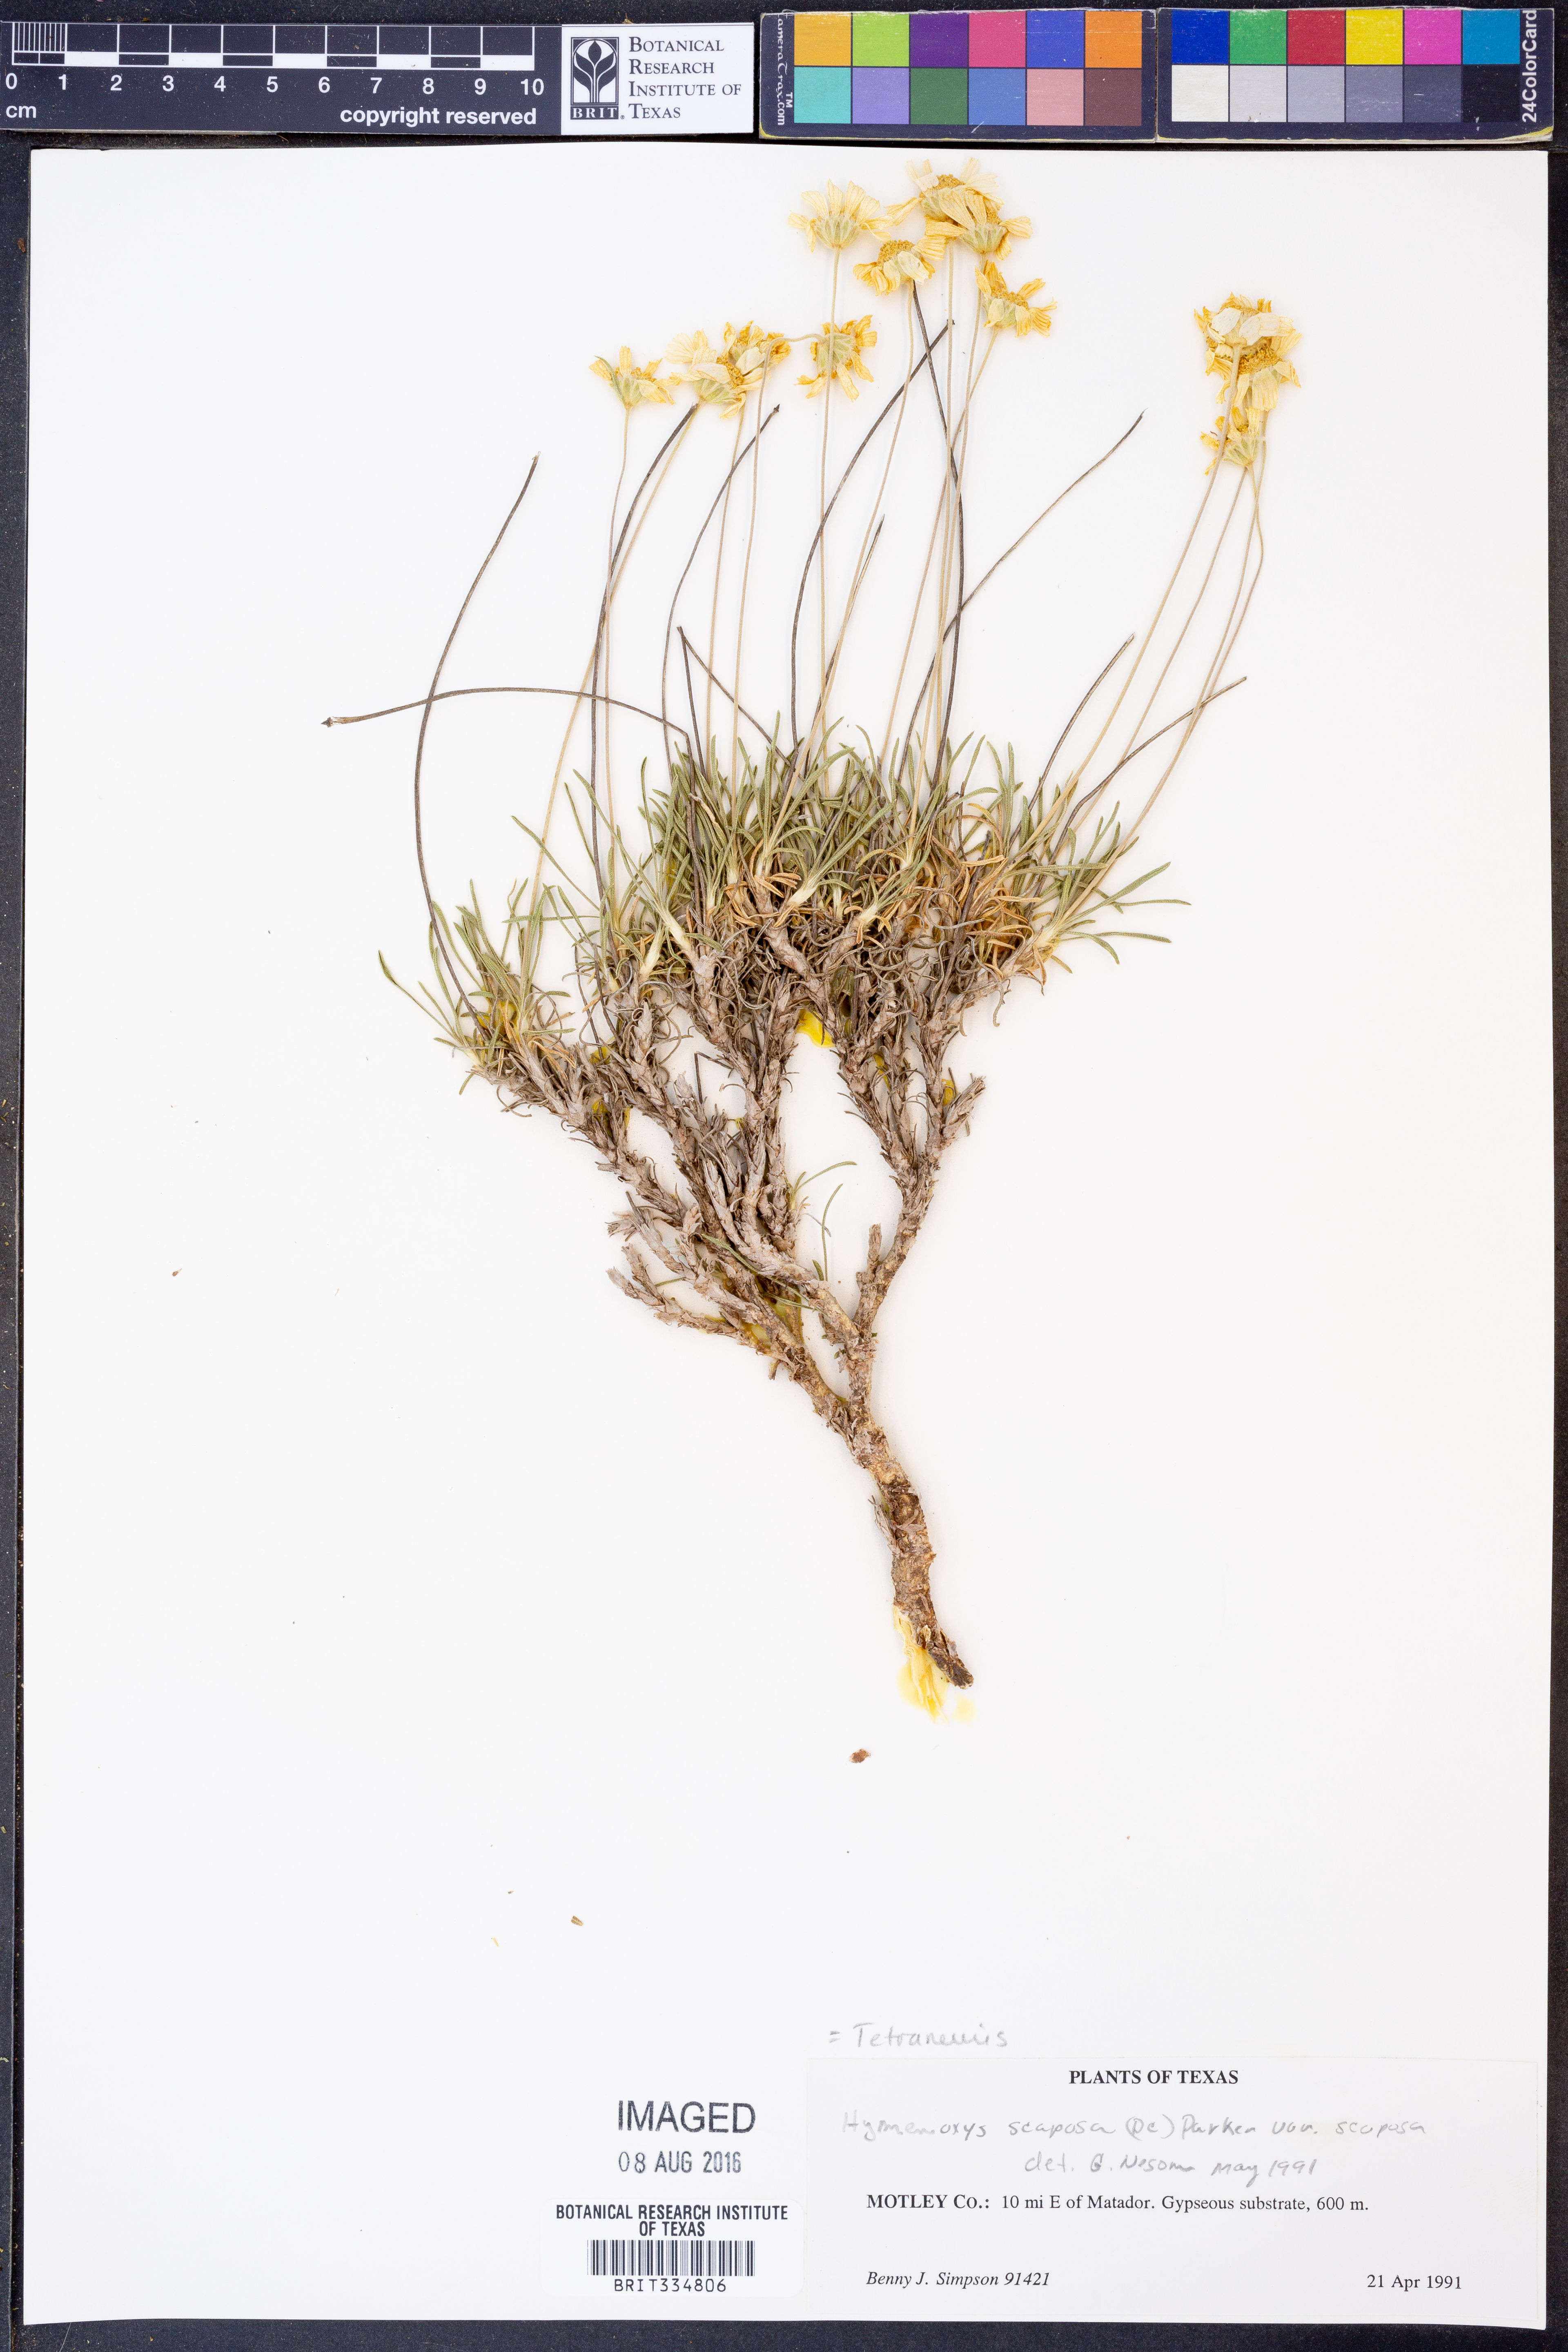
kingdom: Plantae
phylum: Tracheophyta
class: Magnoliopsida
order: Asterales
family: Asteraceae
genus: Tetraneuris
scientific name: Tetraneuris scaposa
